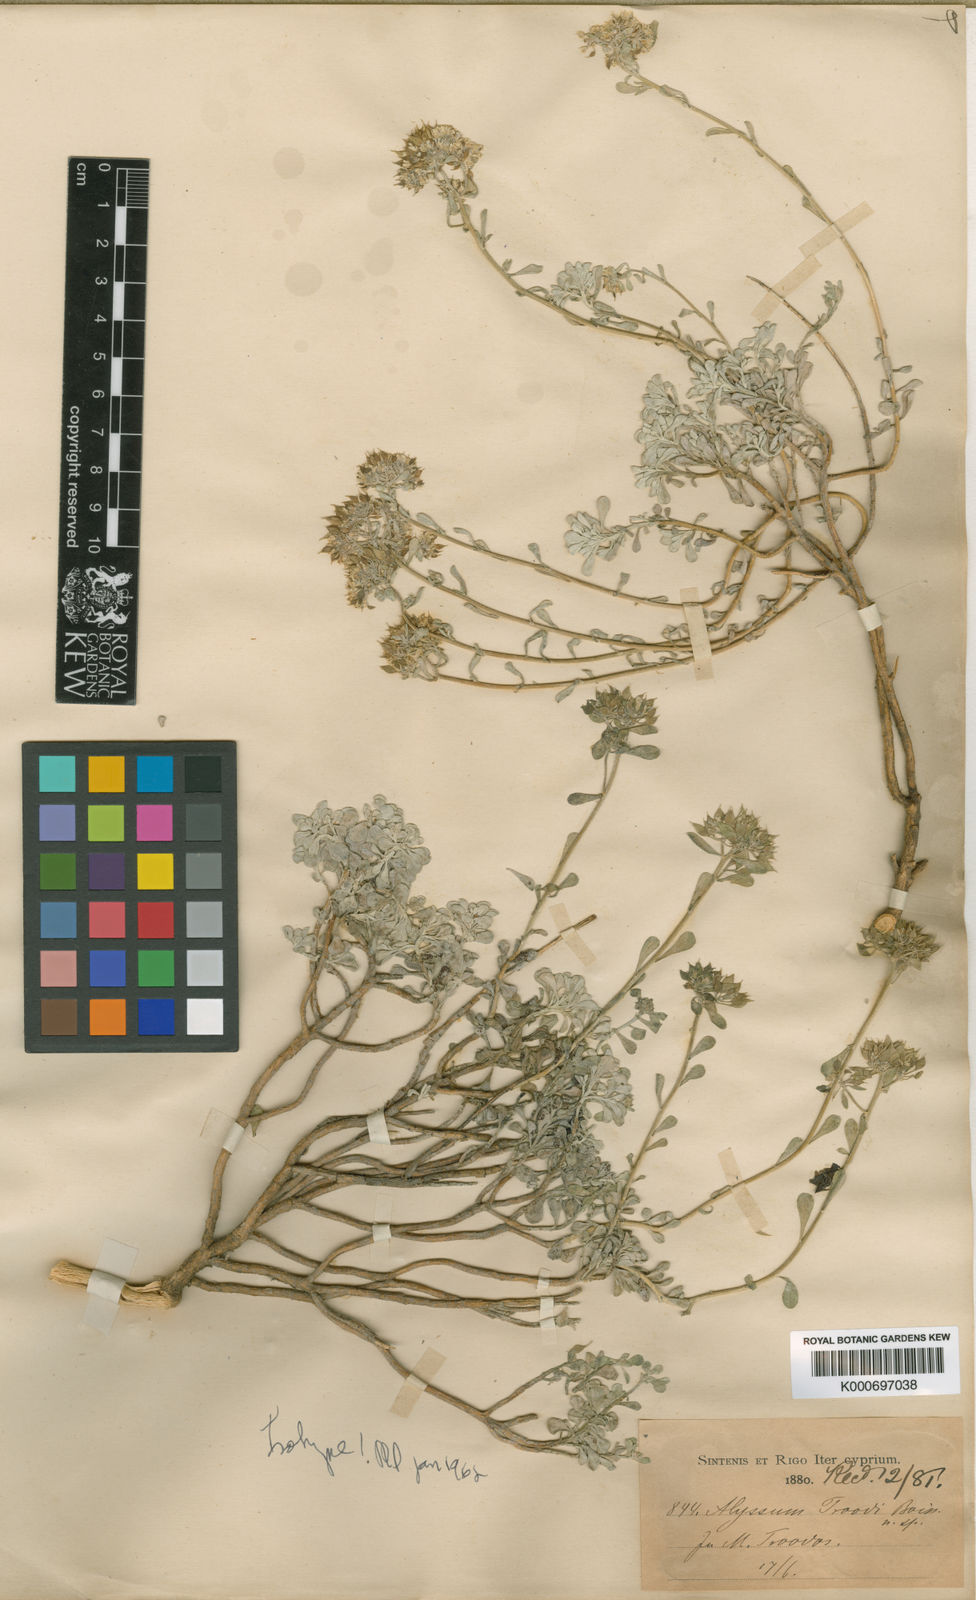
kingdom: Plantae
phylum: Tracheophyta
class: Magnoliopsida
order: Brassicales
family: Brassicaceae
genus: Odontarrhena
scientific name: Odontarrhena troodi
